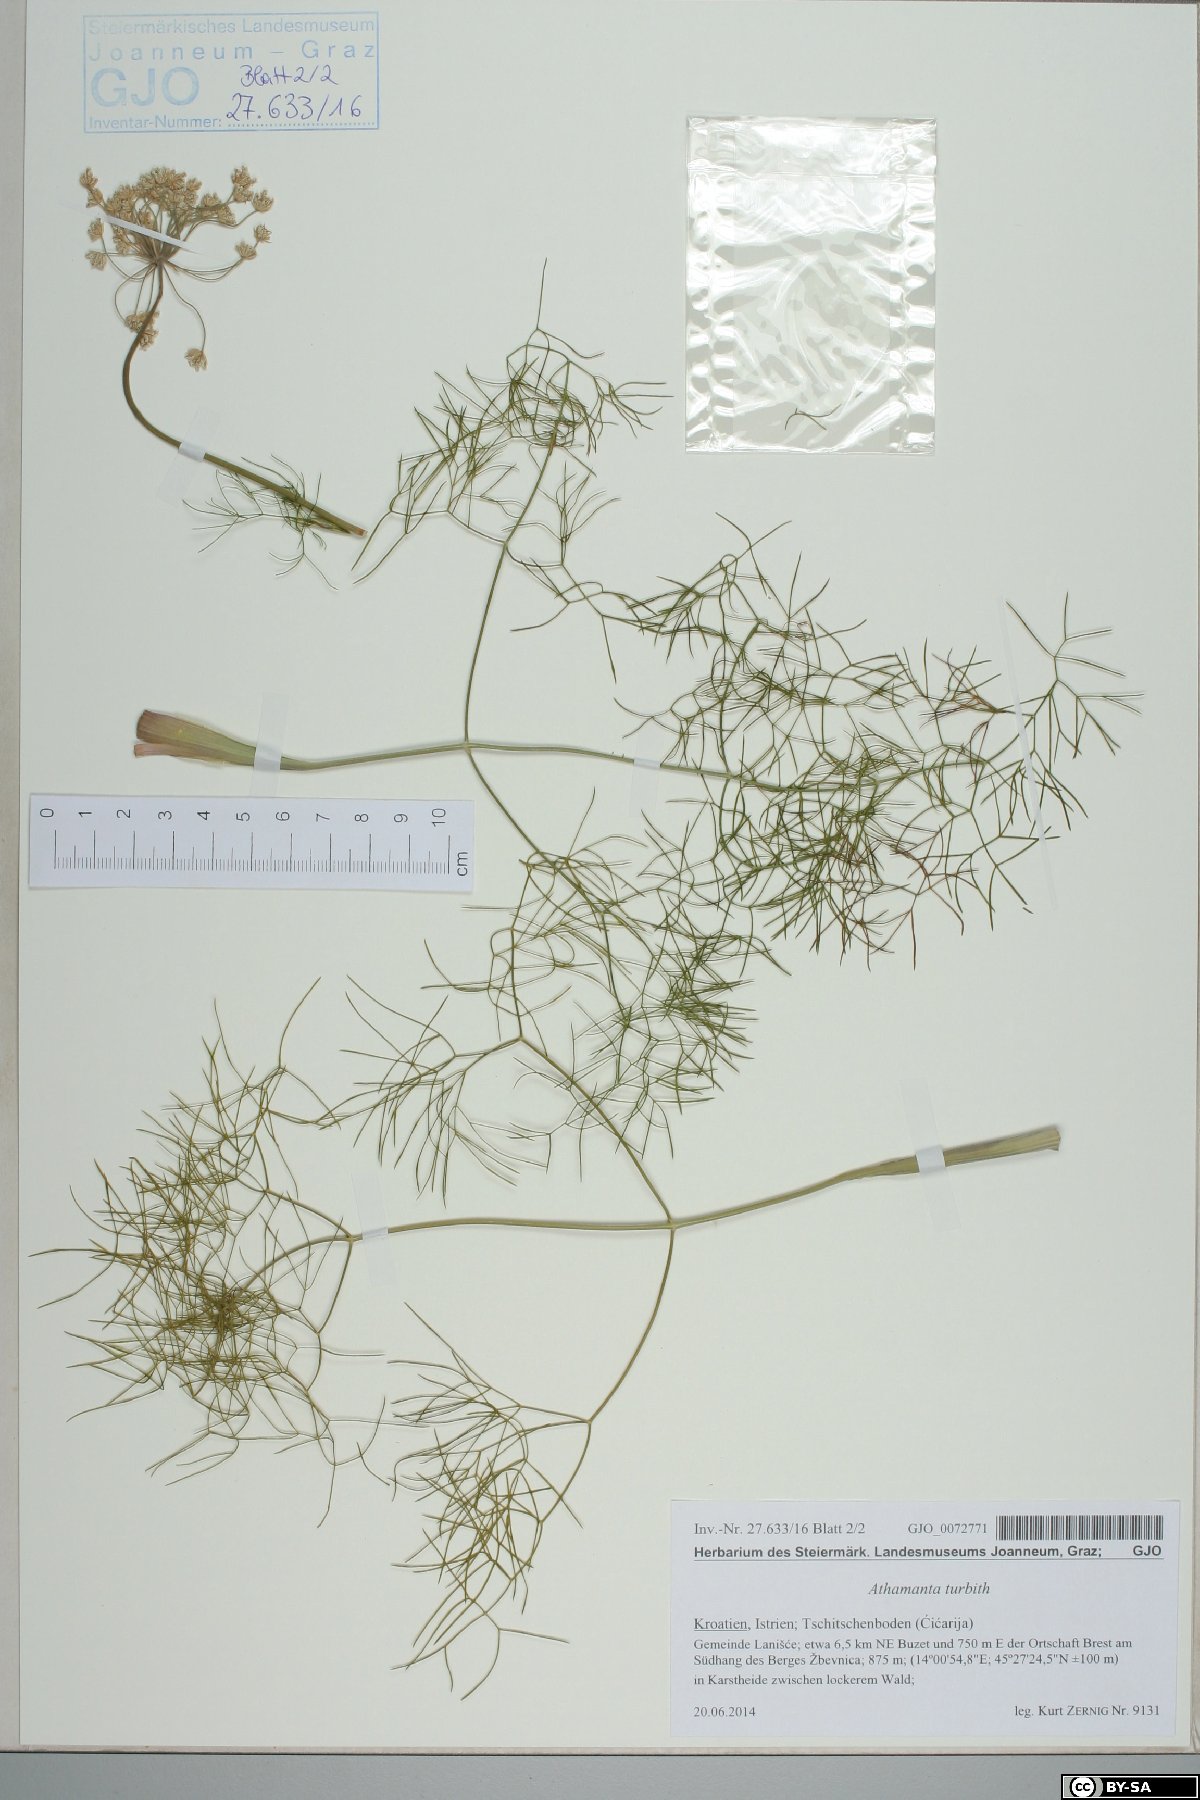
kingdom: Plantae
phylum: Tracheophyta
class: Magnoliopsida
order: Apiales
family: Apiaceae
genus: Athamanta
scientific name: Athamanta turbith
